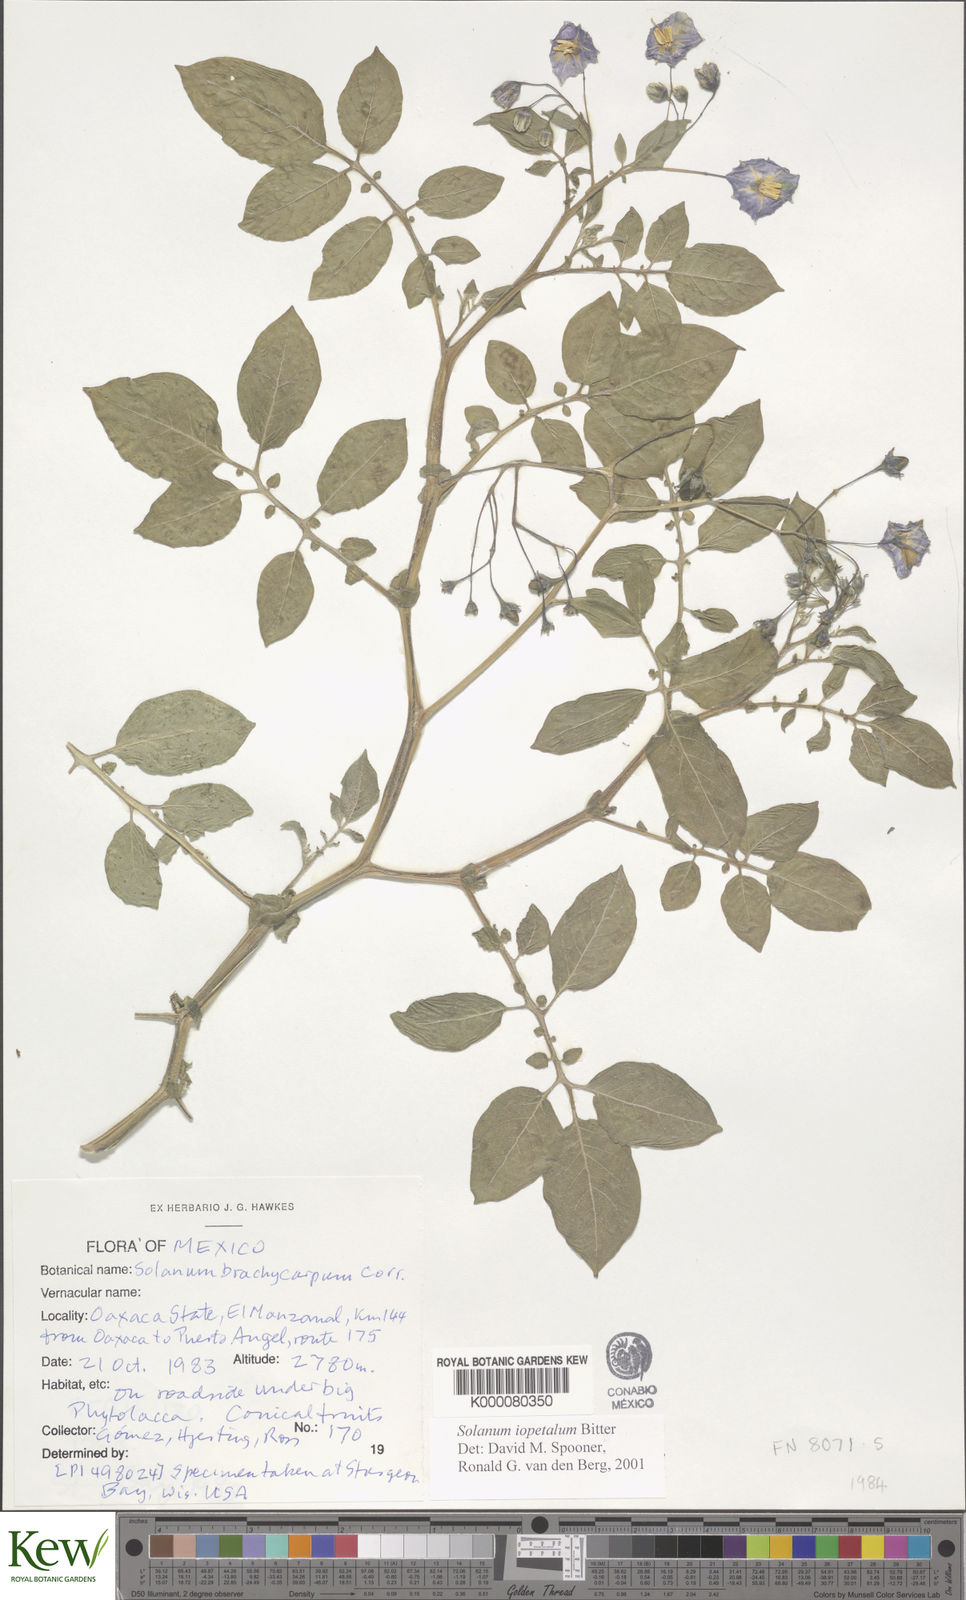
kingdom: Plantae
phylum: Tracheophyta
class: Magnoliopsida
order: Solanales
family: Solanaceae
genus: Solanum
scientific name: Solanum iopetalum
